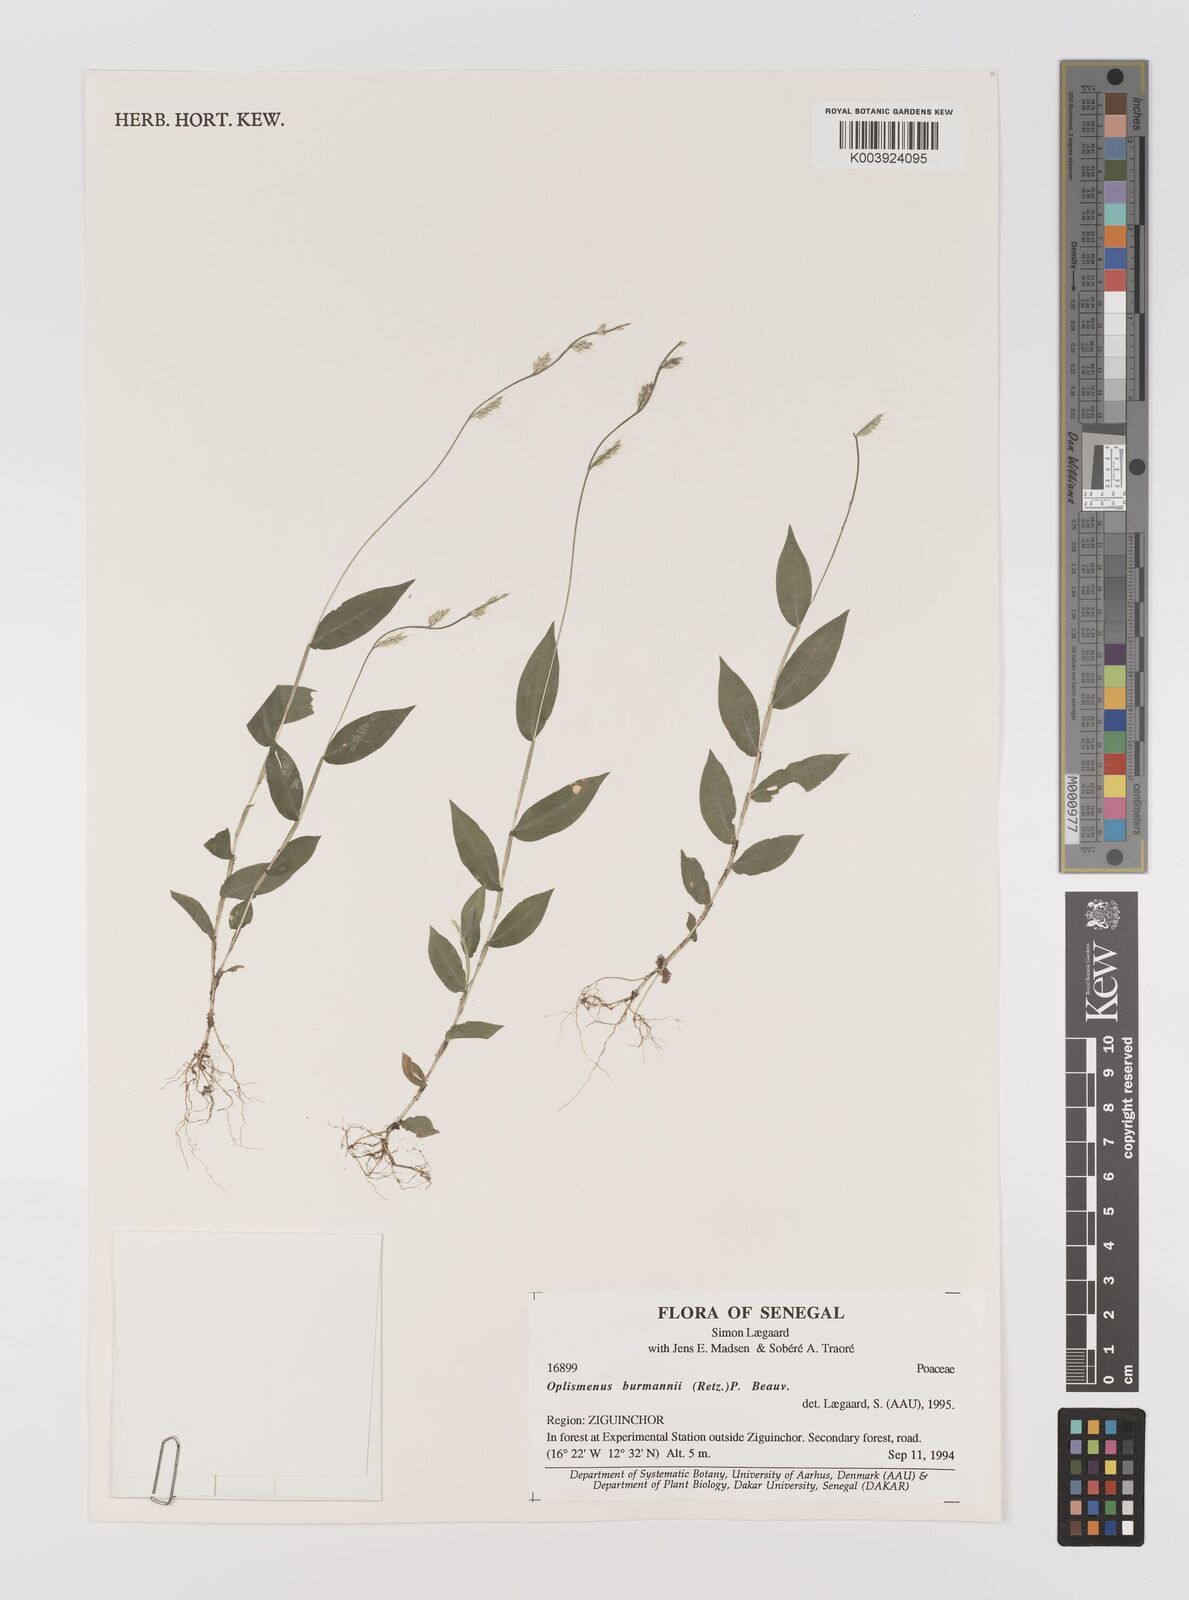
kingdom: Plantae
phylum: Tracheophyta
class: Liliopsida
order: Poales
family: Poaceae
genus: Oplismenus
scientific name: Oplismenus burmanni
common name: Burmann's basketgrass
